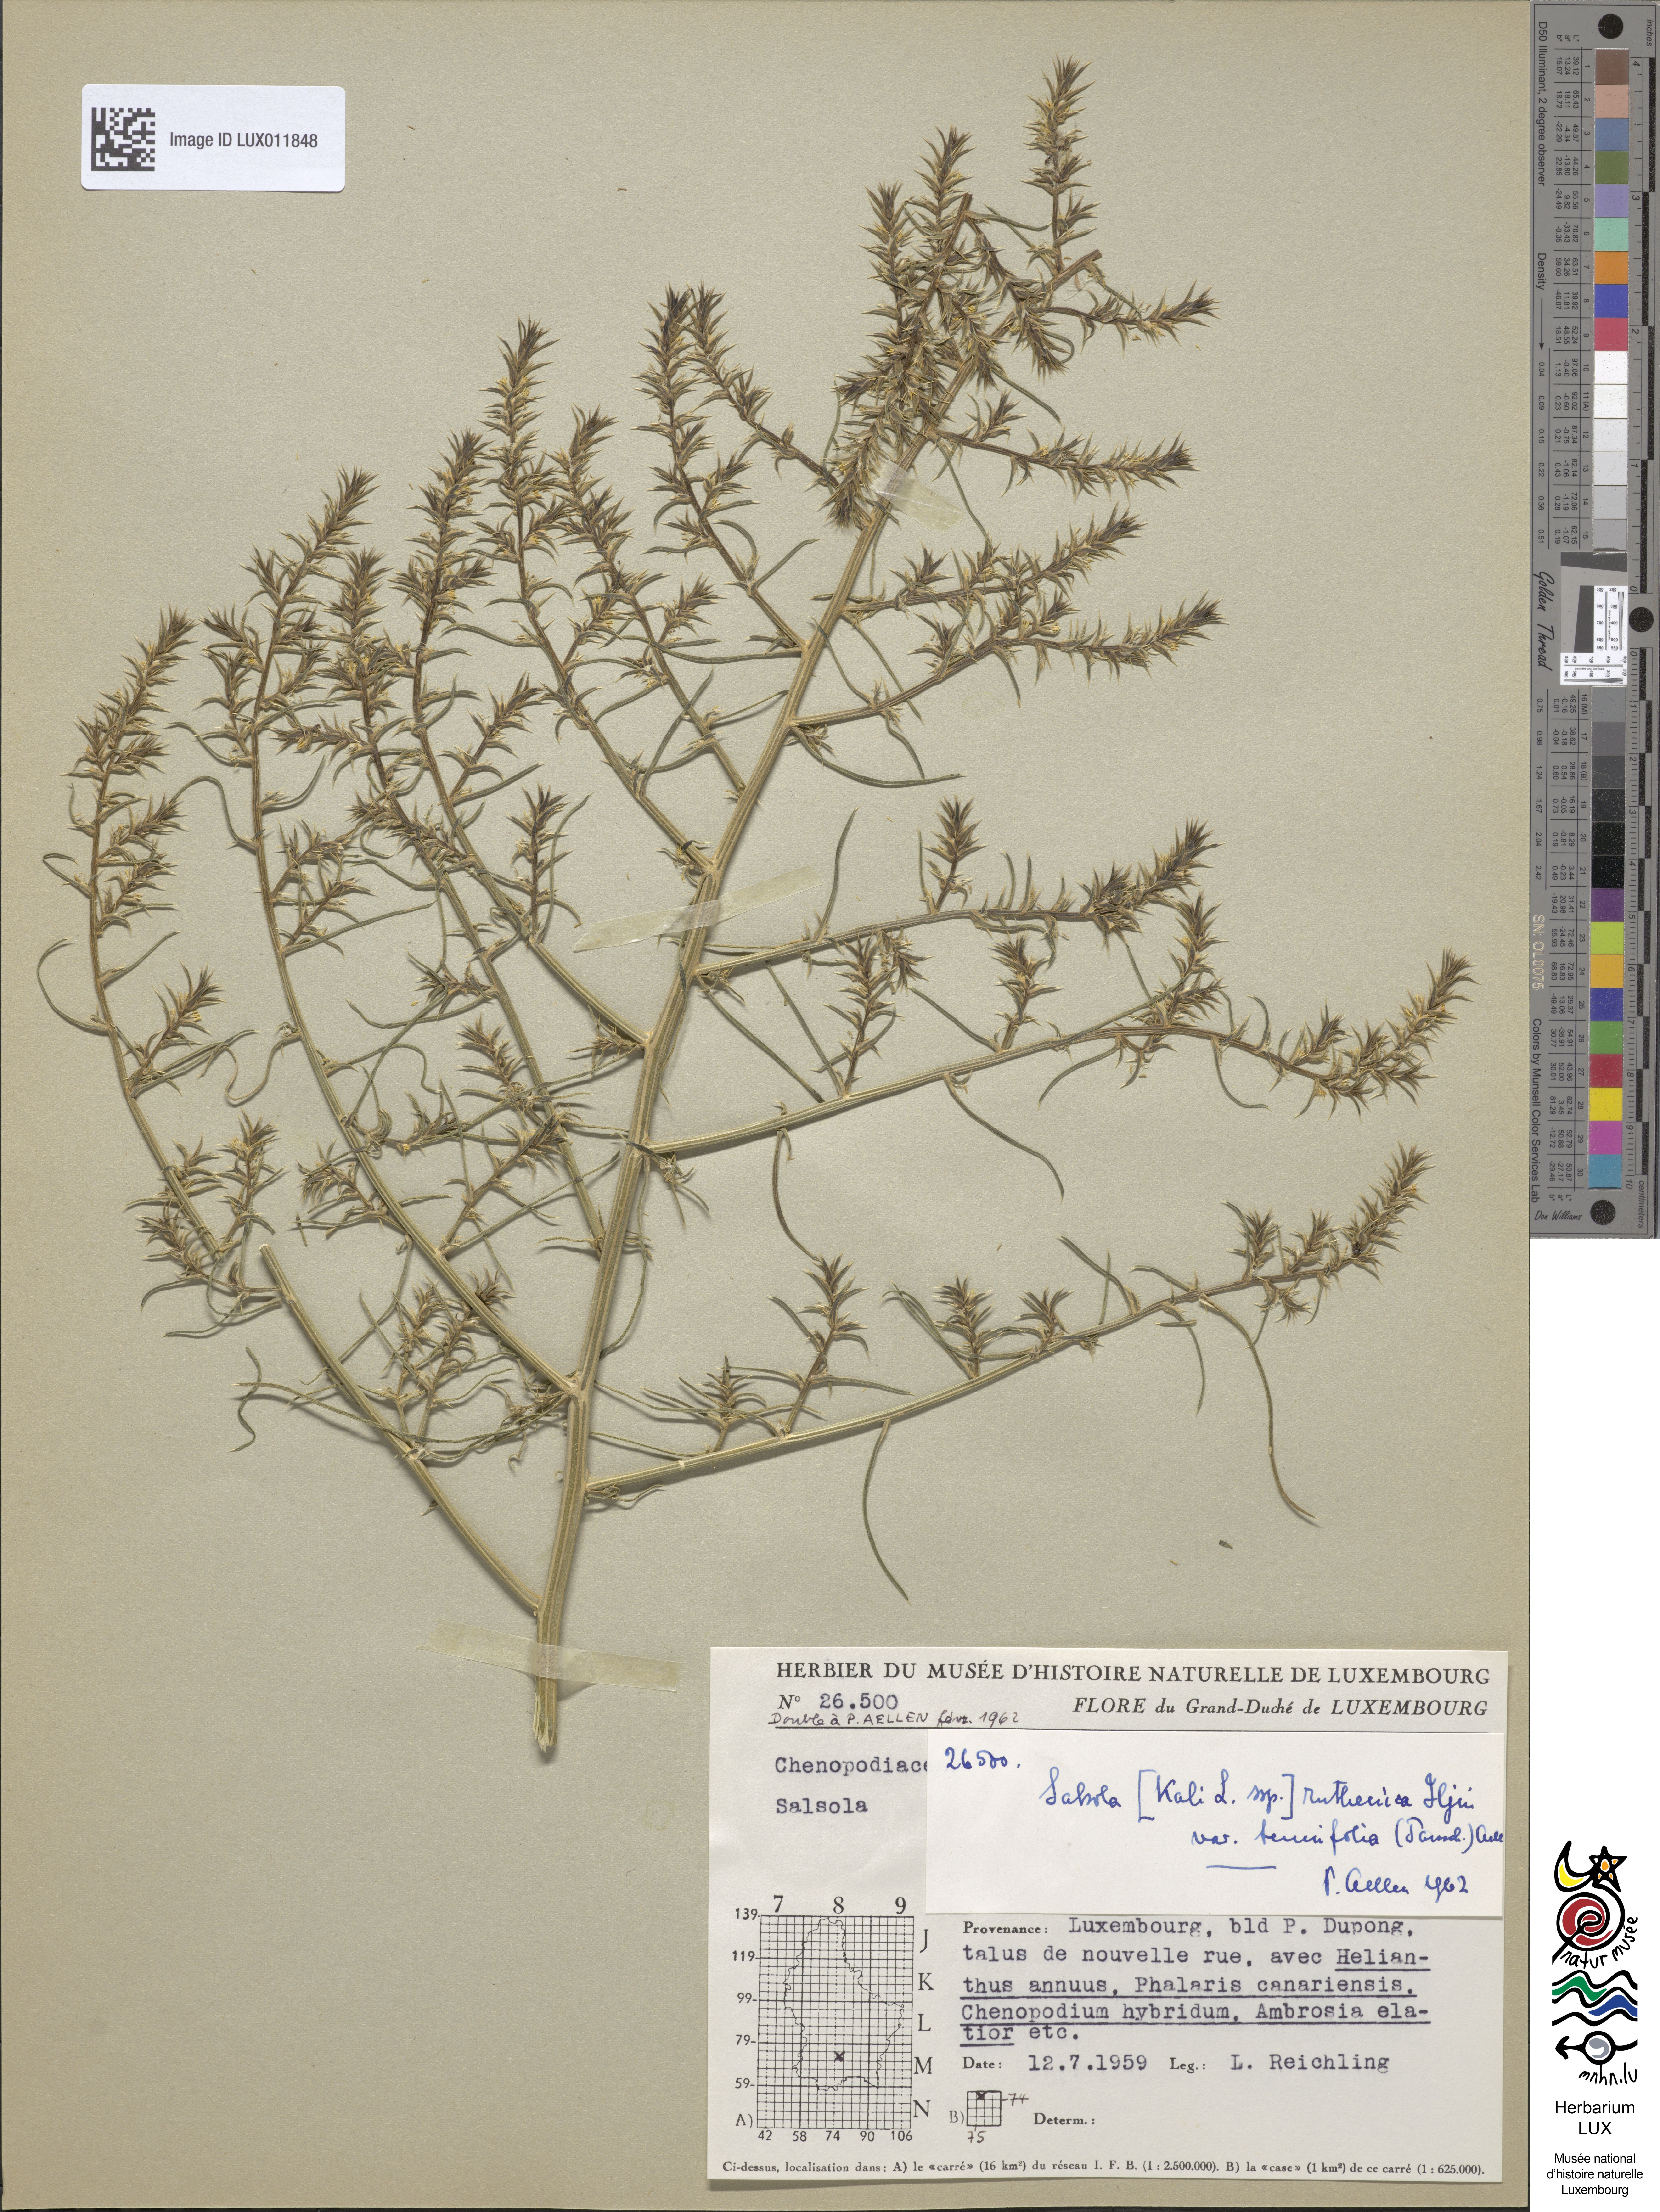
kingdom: Plantae
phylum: Tracheophyta
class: Magnoliopsida
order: Caryophyllales
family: Amaranthaceae
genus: Salsola
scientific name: Salsola tragus
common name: Prickly russian thistle
